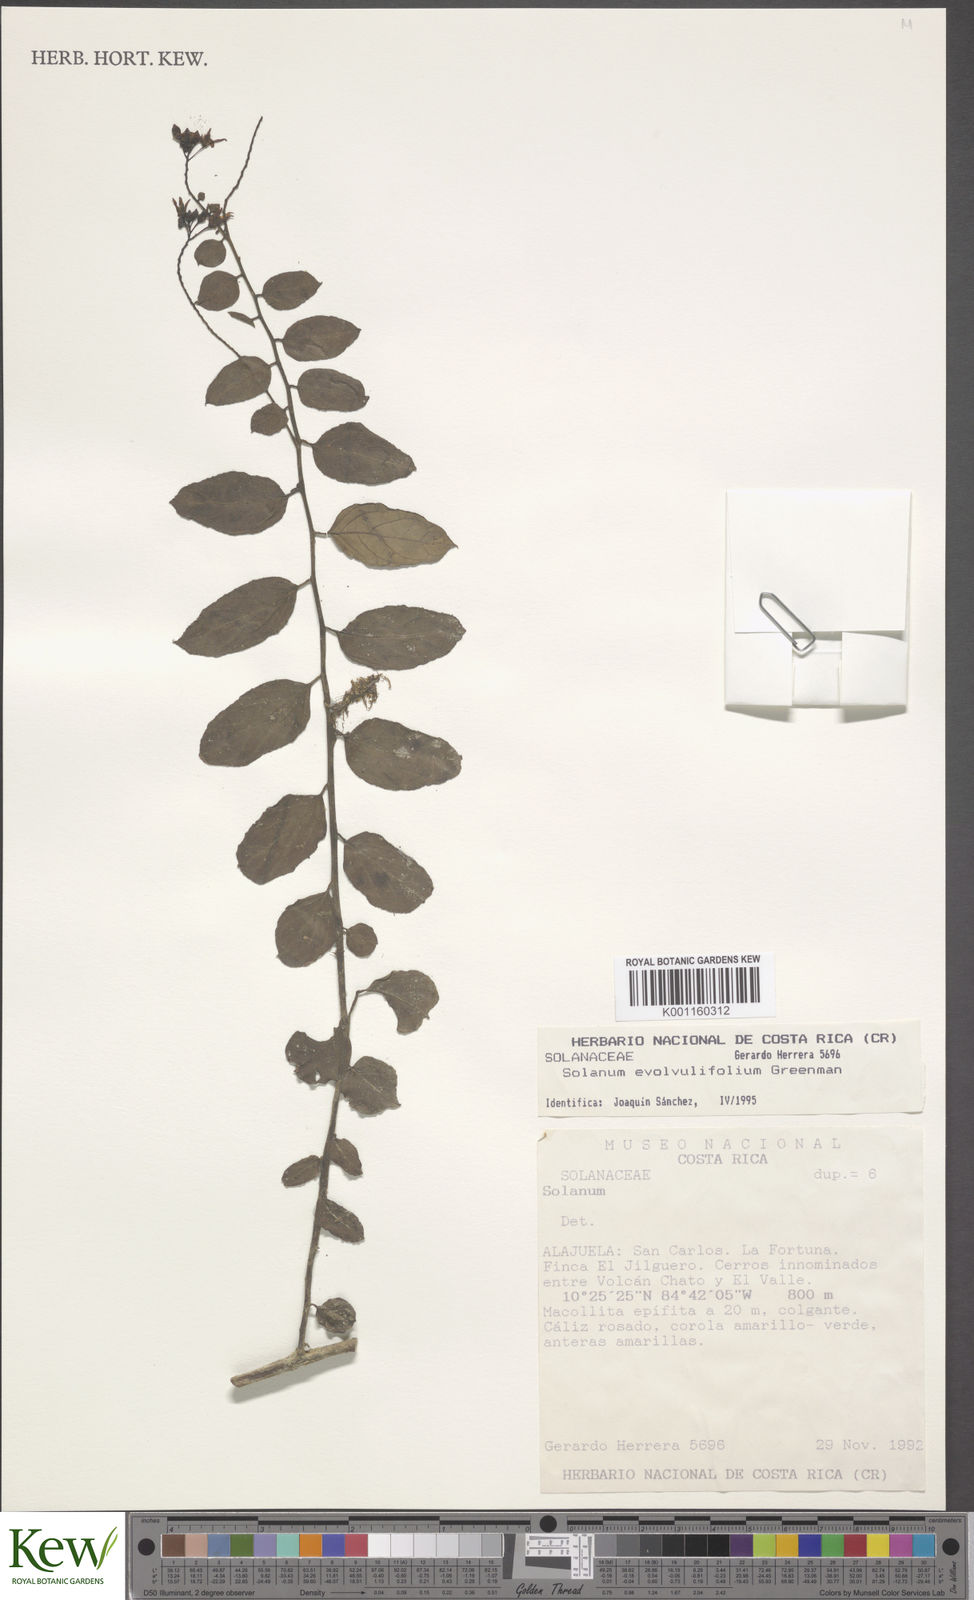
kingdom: Plantae
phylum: Tracheophyta
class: Magnoliopsida
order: Solanales
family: Solanaceae
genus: Solanum
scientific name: Solanum evolvulifolium
